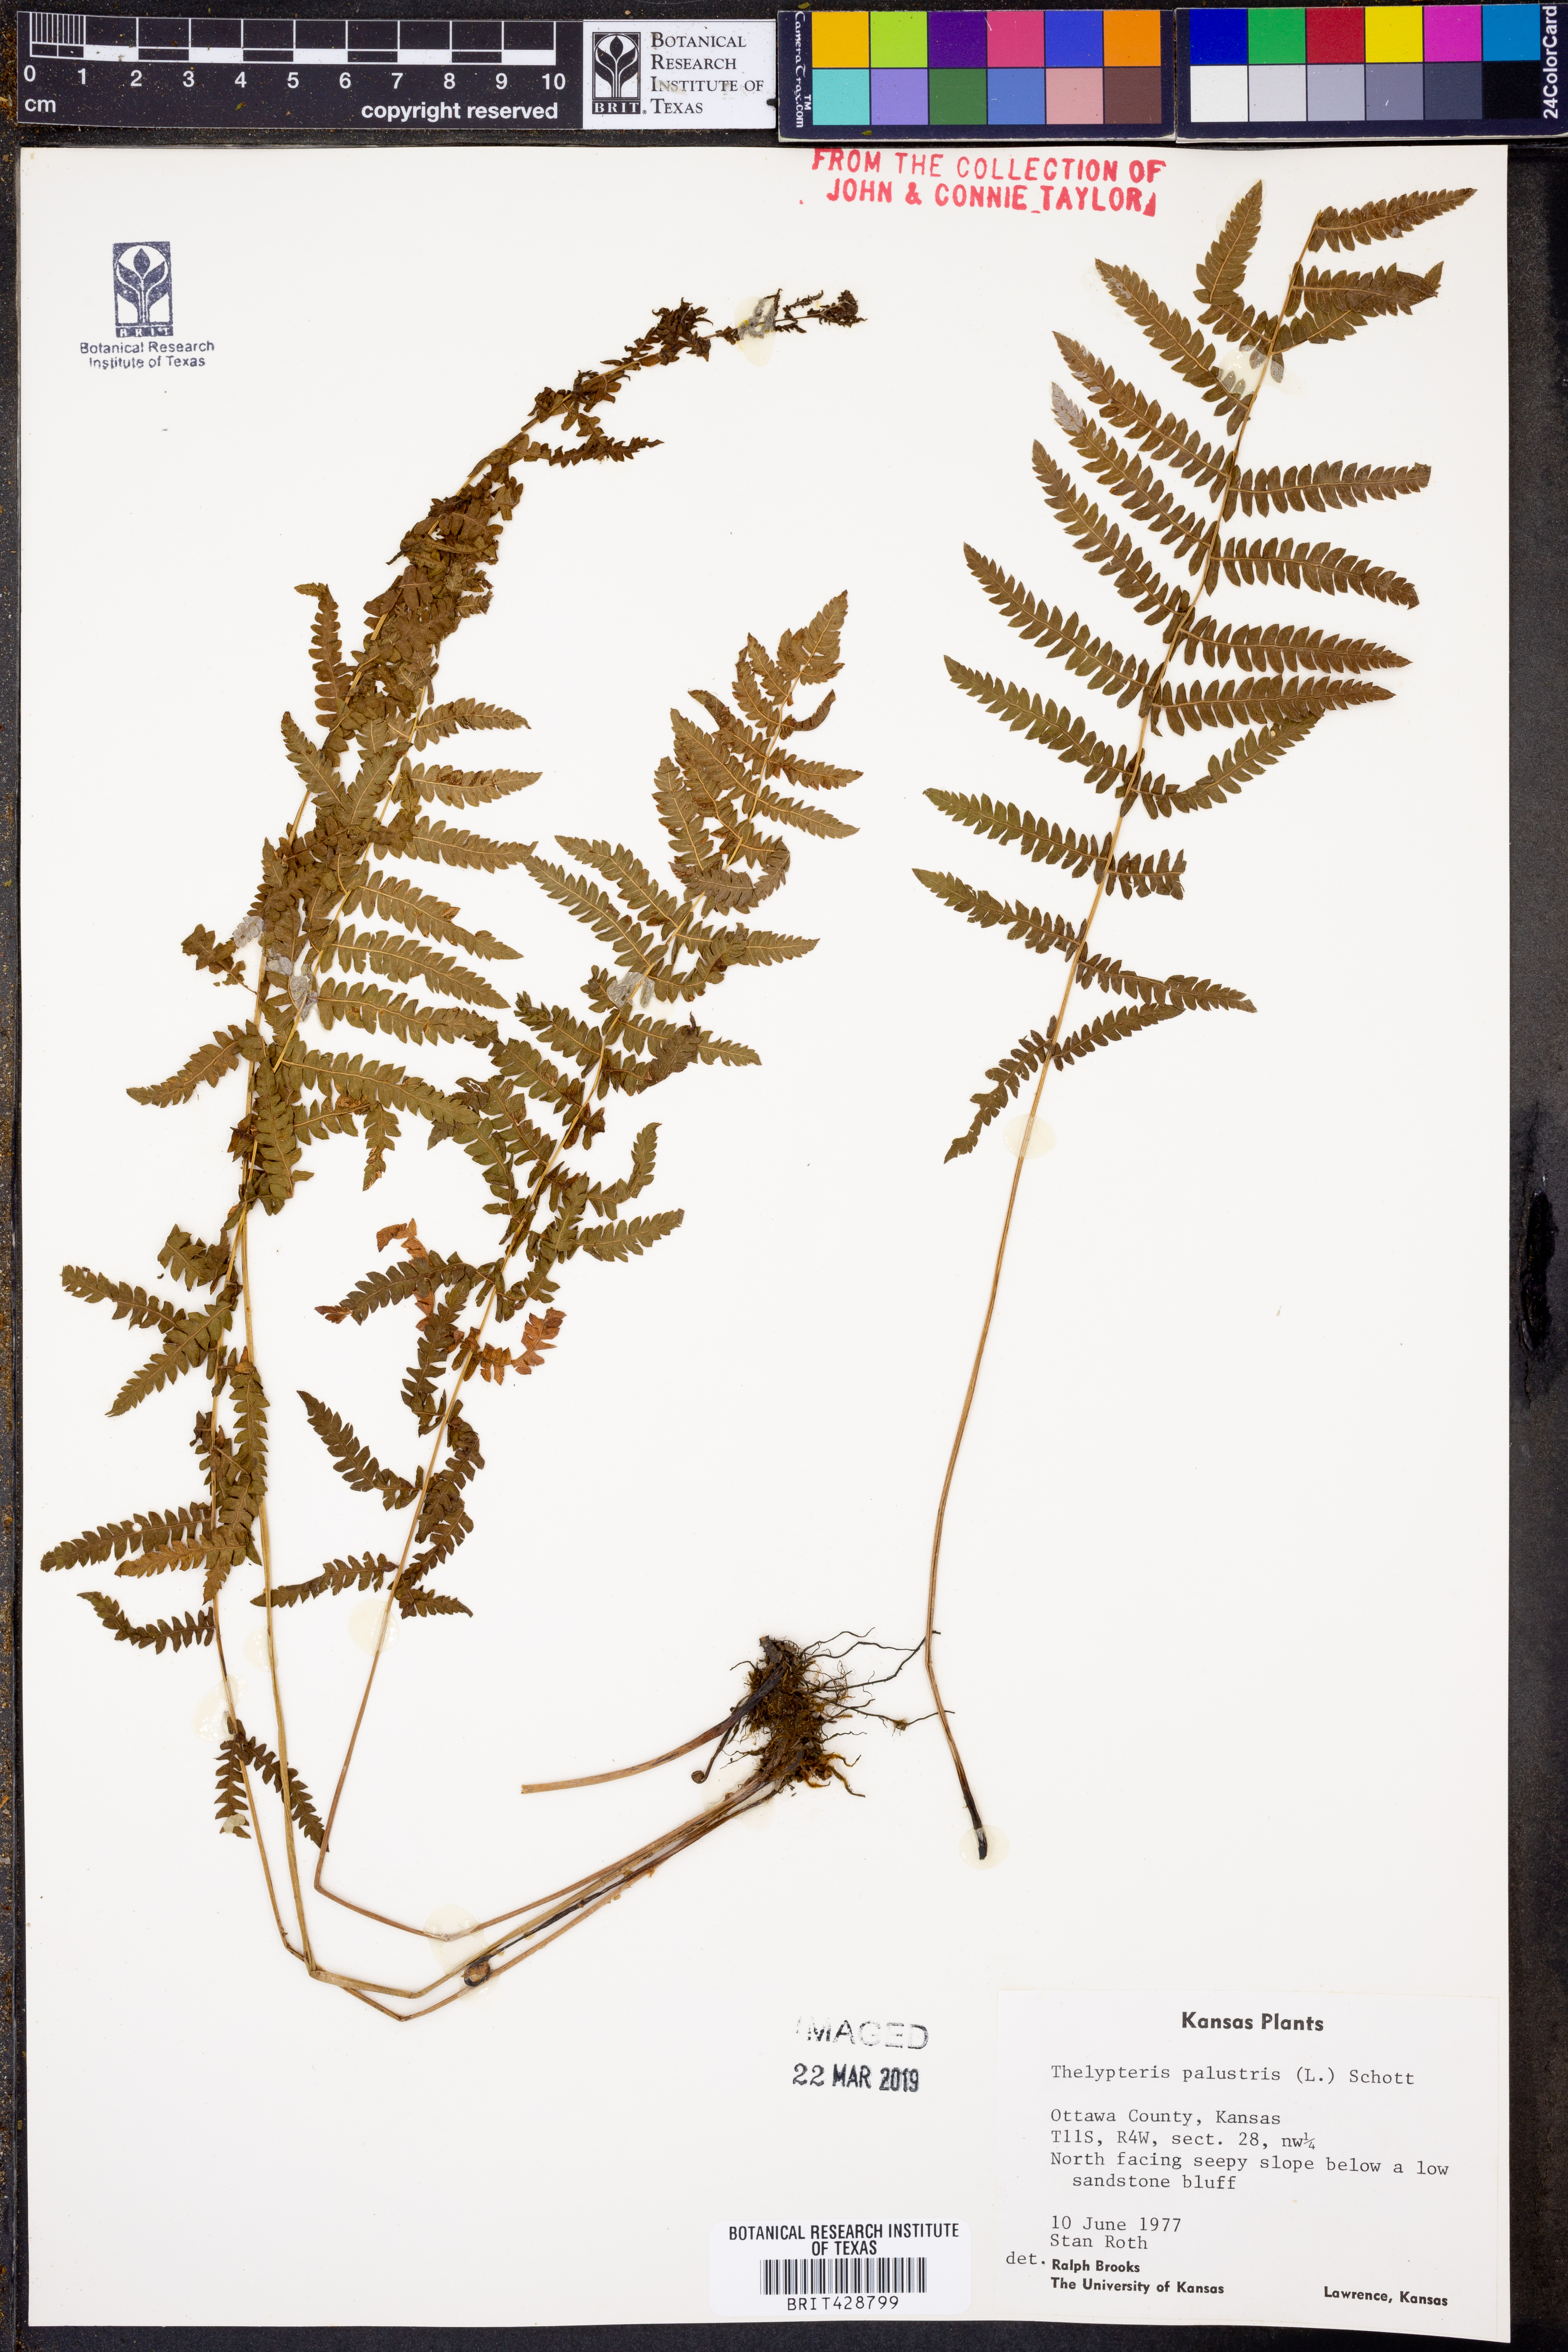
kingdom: Plantae
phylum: Tracheophyta
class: Polypodiopsida
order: Polypodiales
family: Thelypteridaceae
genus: Thelypteris
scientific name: Thelypteris palustris
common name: Marsh fern
